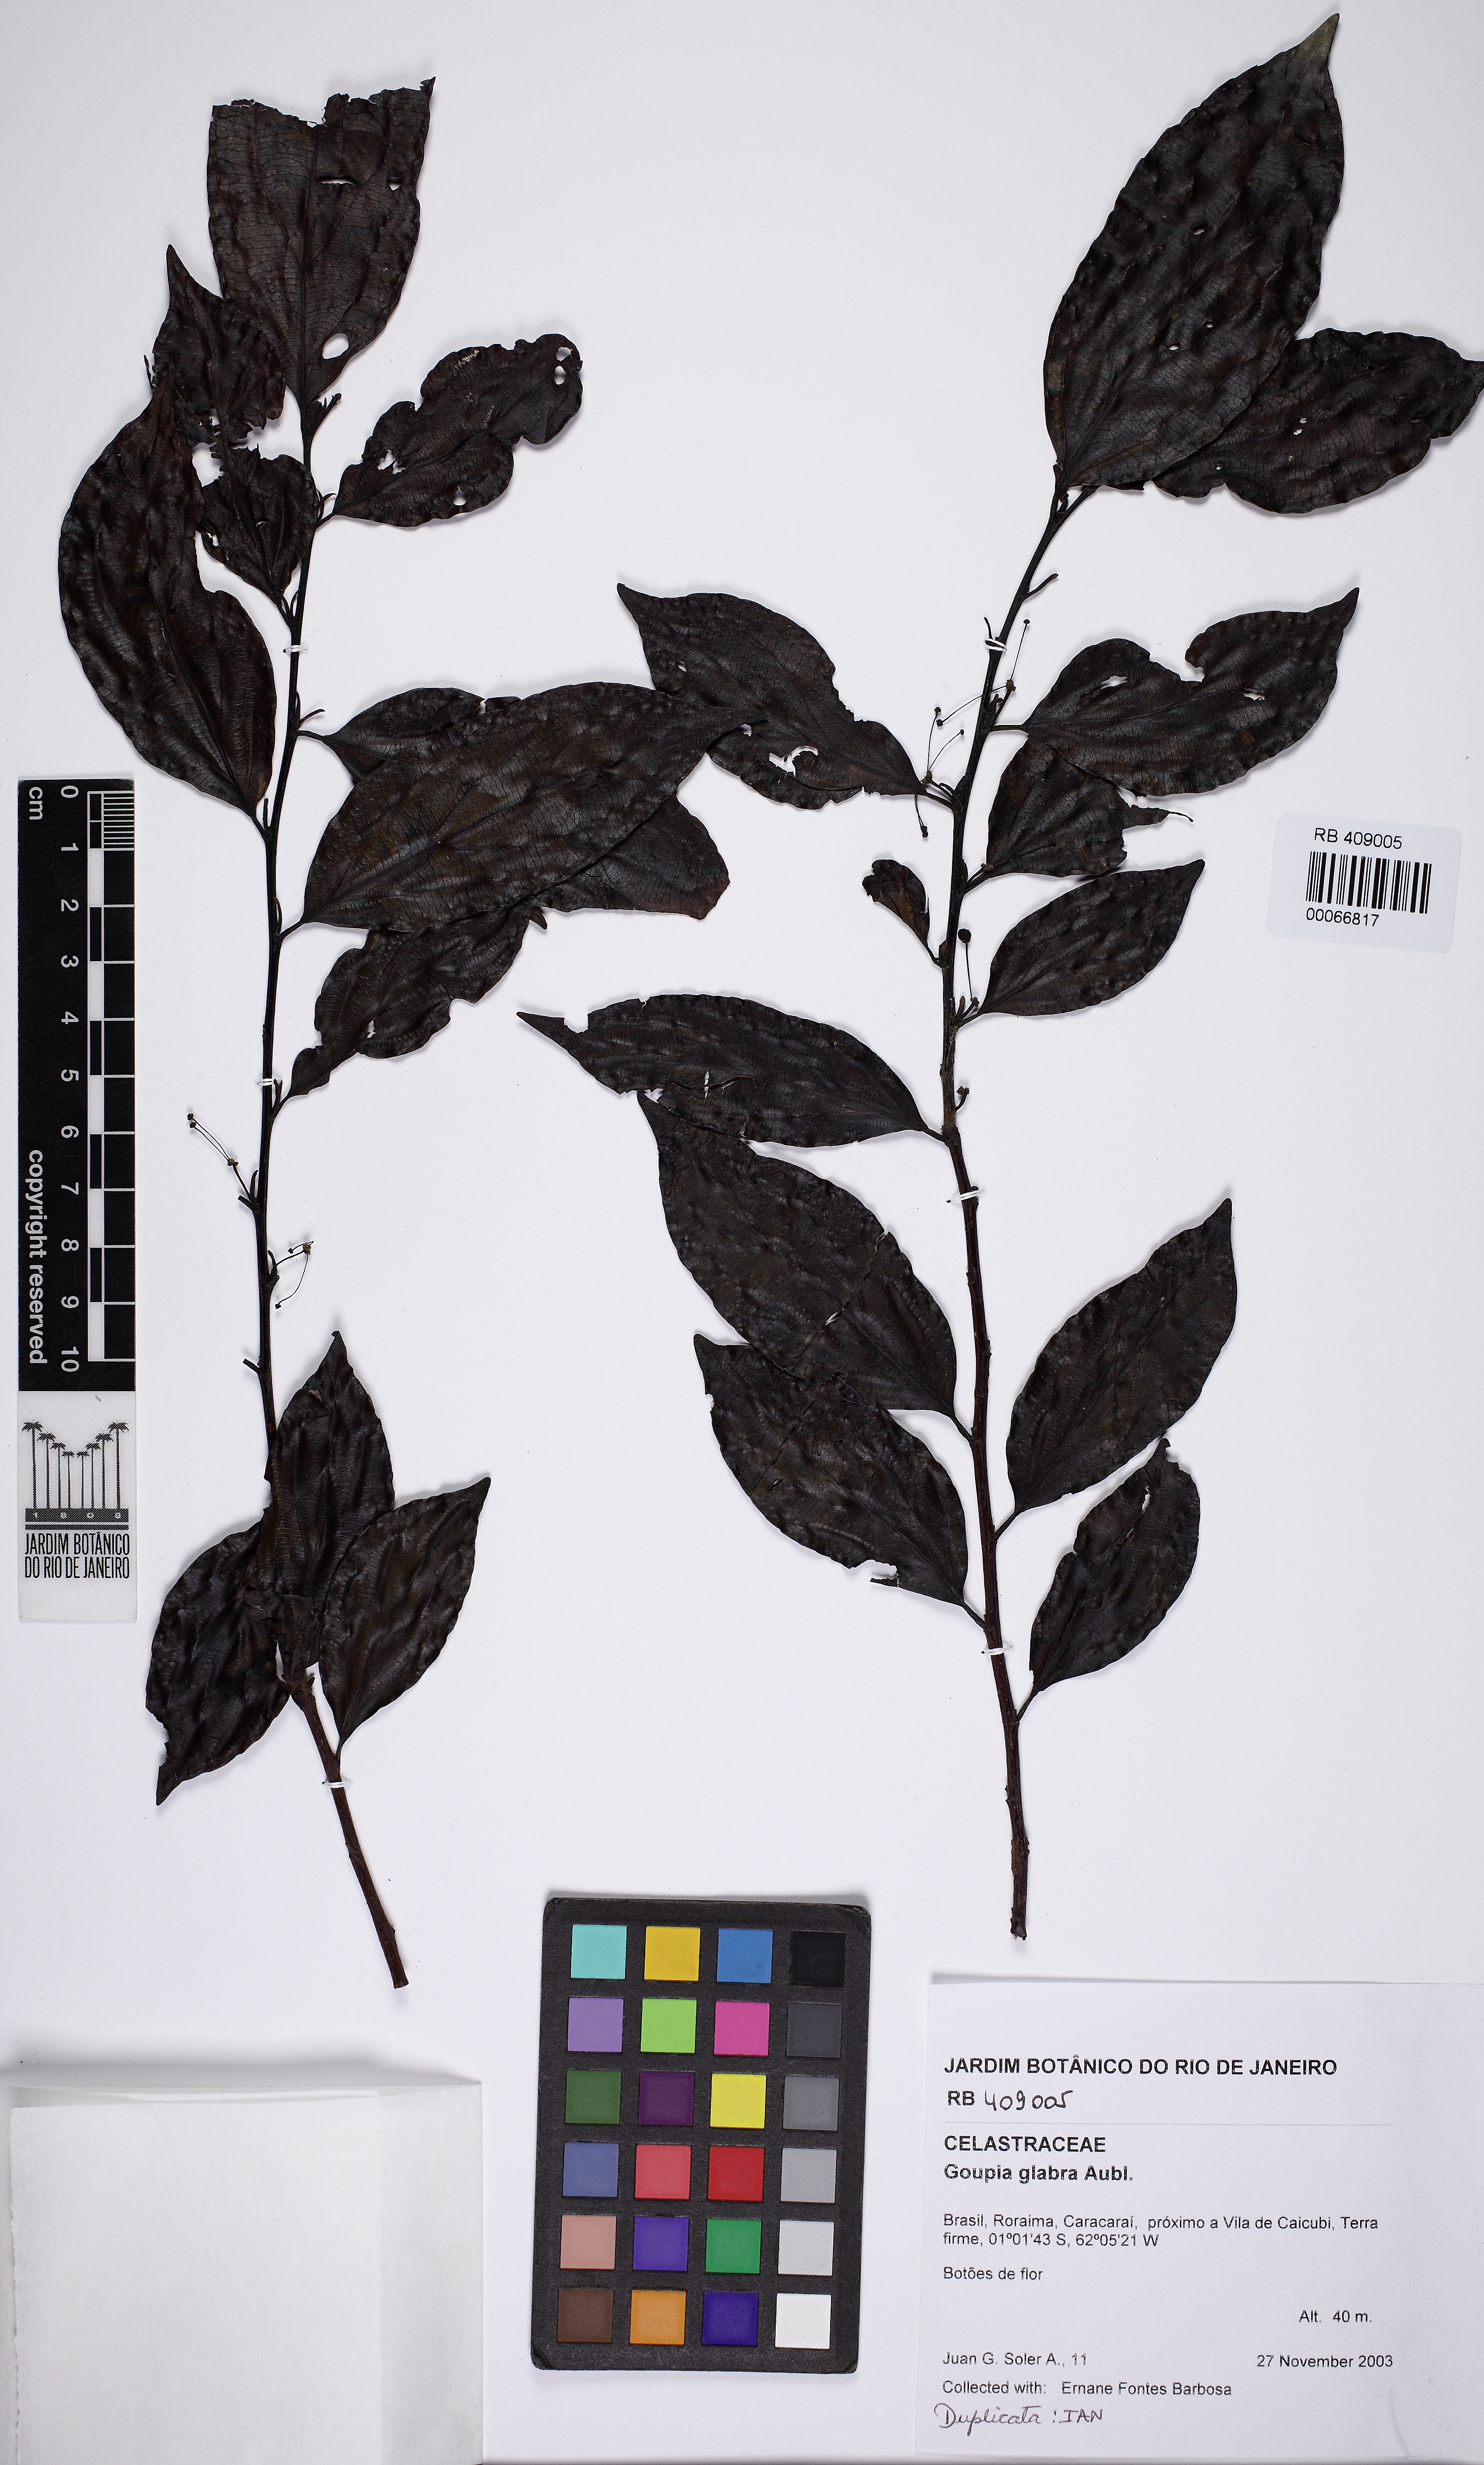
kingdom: Plantae
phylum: Tracheophyta
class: Magnoliopsida
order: Malpighiales
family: Goupiaceae
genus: Goupia
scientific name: Goupia glabra
